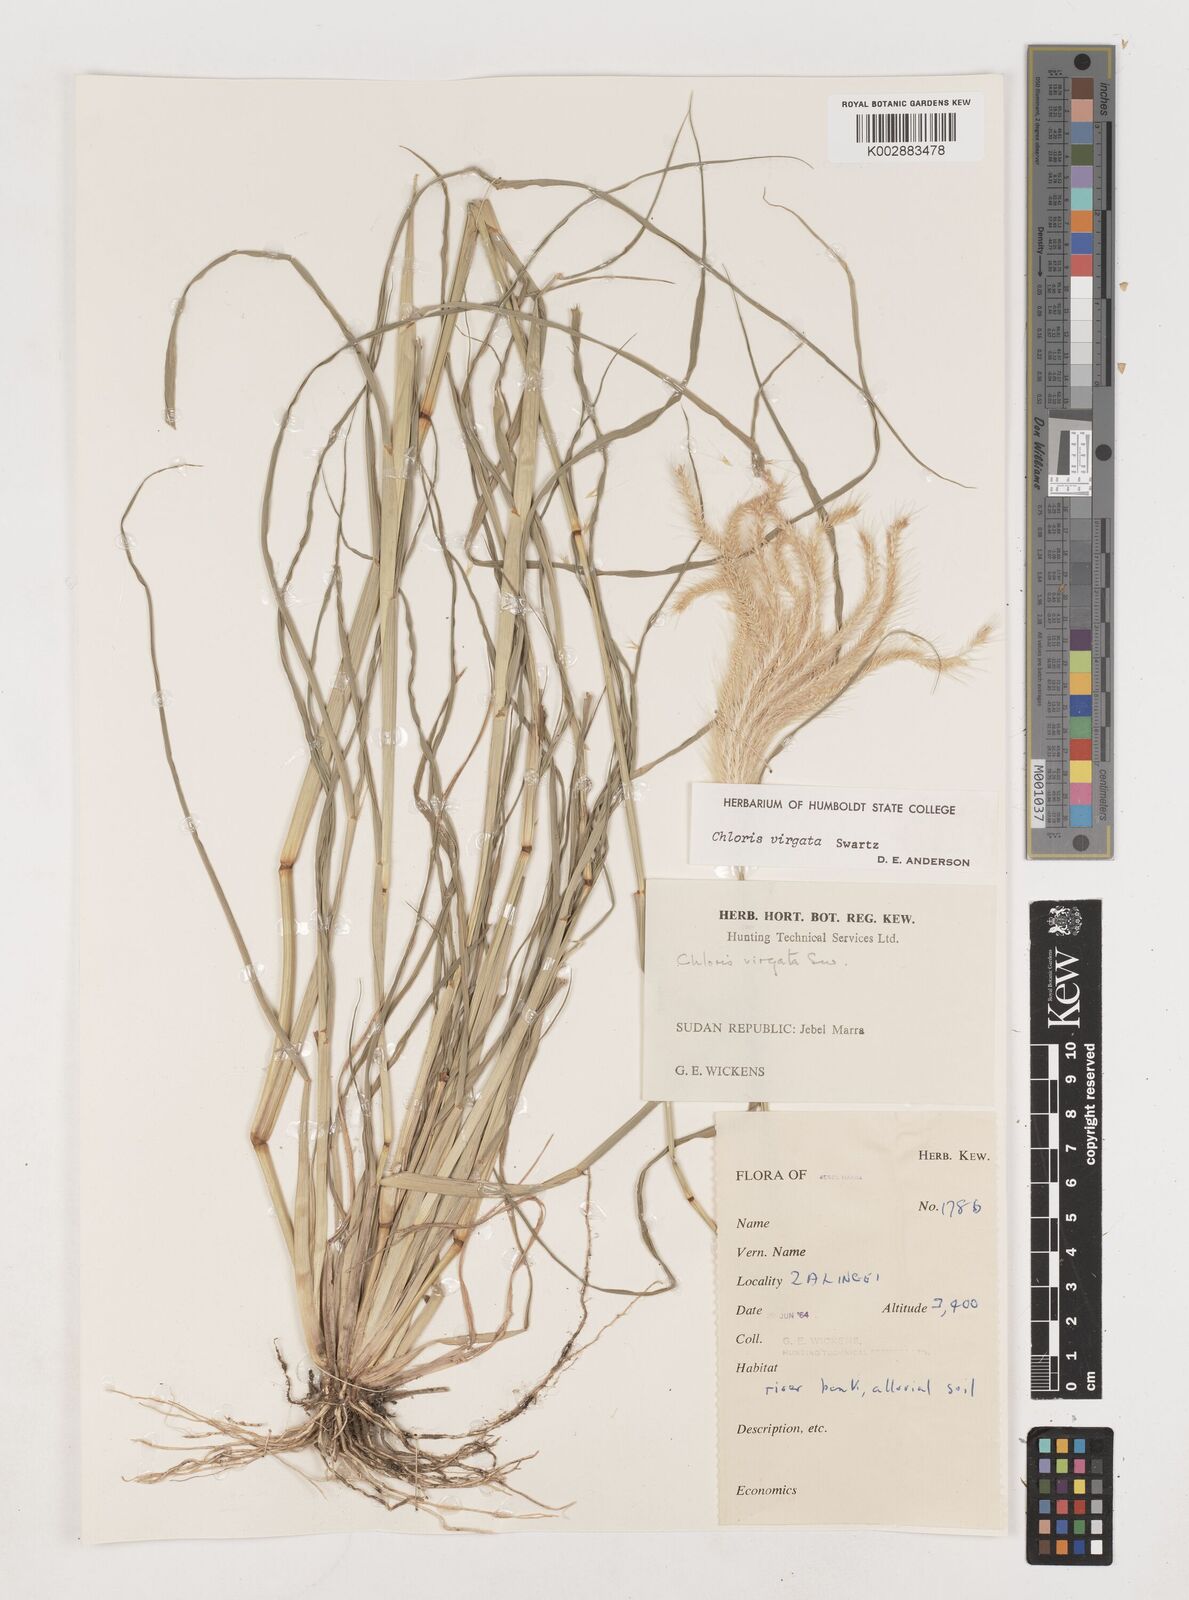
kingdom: Plantae
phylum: Tracheophyta
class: Liliopsida
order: Poales
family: Poaceae
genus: Chloris
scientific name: Chloris virgata
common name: Feathery rhodes-grass
